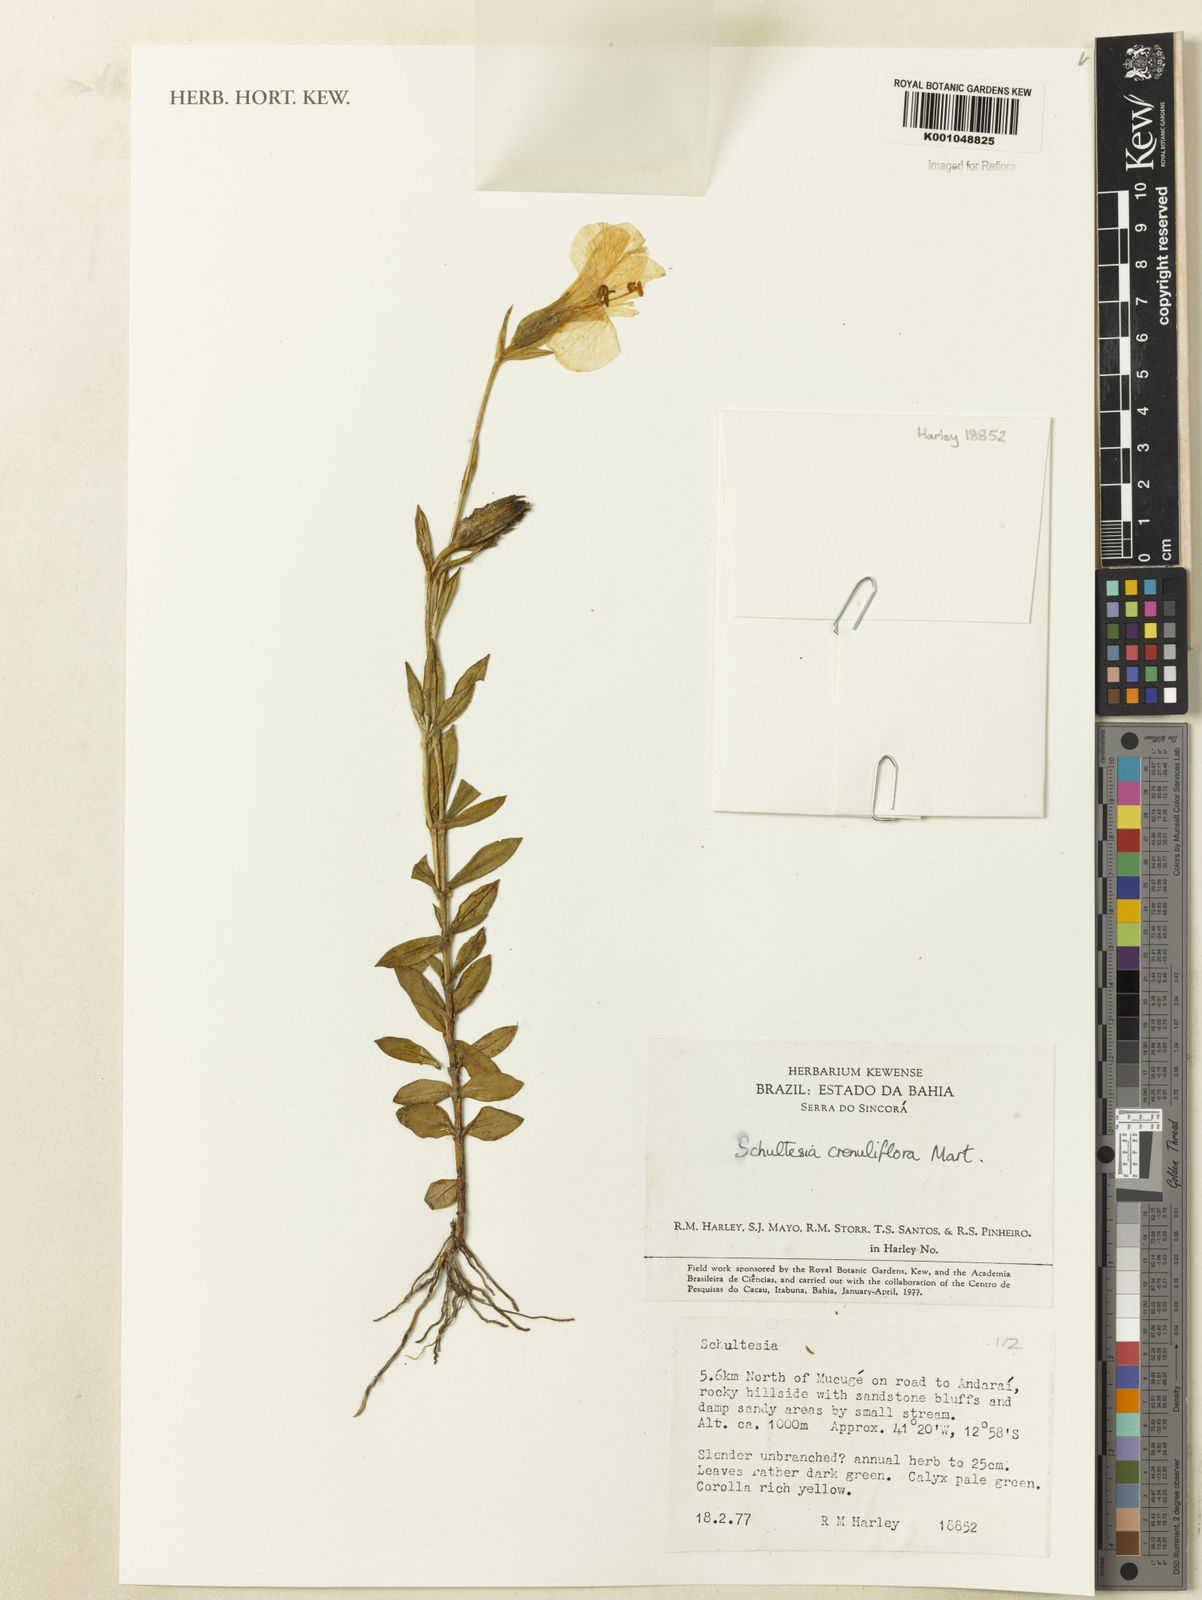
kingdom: Plantae
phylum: Tracheophyta
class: Magnoliopsida
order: Gentianales
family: Gentianaceae
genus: Schultesia
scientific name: Schultesia crenuliflora
